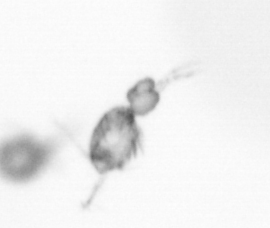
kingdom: Animalia
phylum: Arthropoda
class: Copepoda
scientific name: Copepoda
